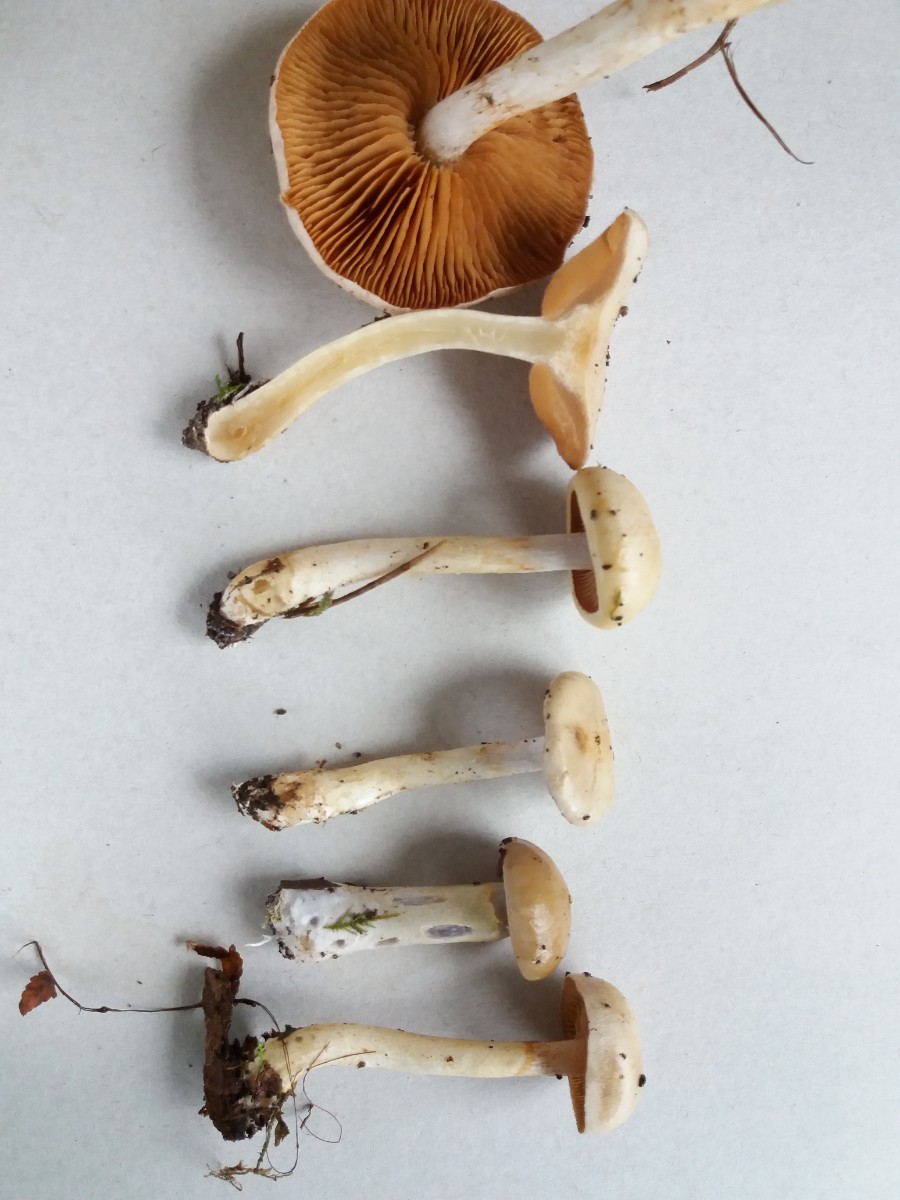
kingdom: Fungi
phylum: Basidiomycota
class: Agaricomycetes
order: Agaricales
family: Cortinariaceae
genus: Cortinarius
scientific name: Cortinarius delibutus
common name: gul slørhat
